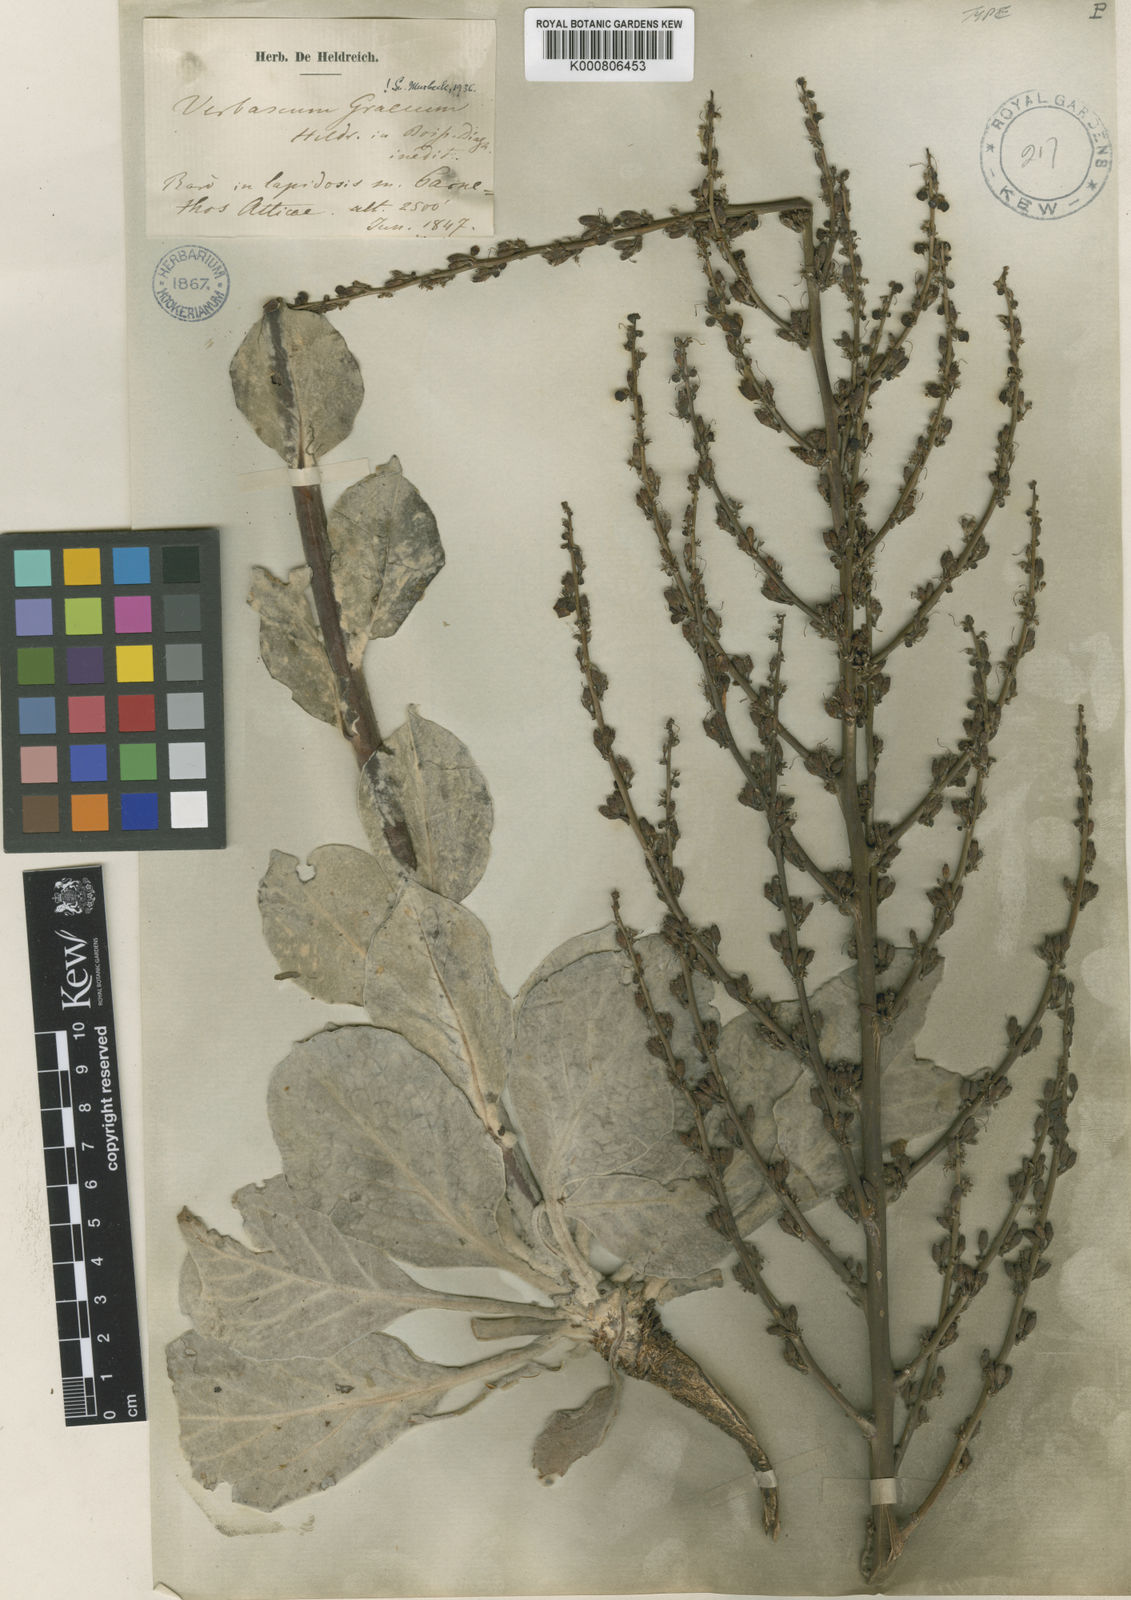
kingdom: Plantae
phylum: Tracheophyta
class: Magnoliopsida
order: Lamiales
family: Scrophulariaceae
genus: Verbascum
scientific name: Verbascum graecum
